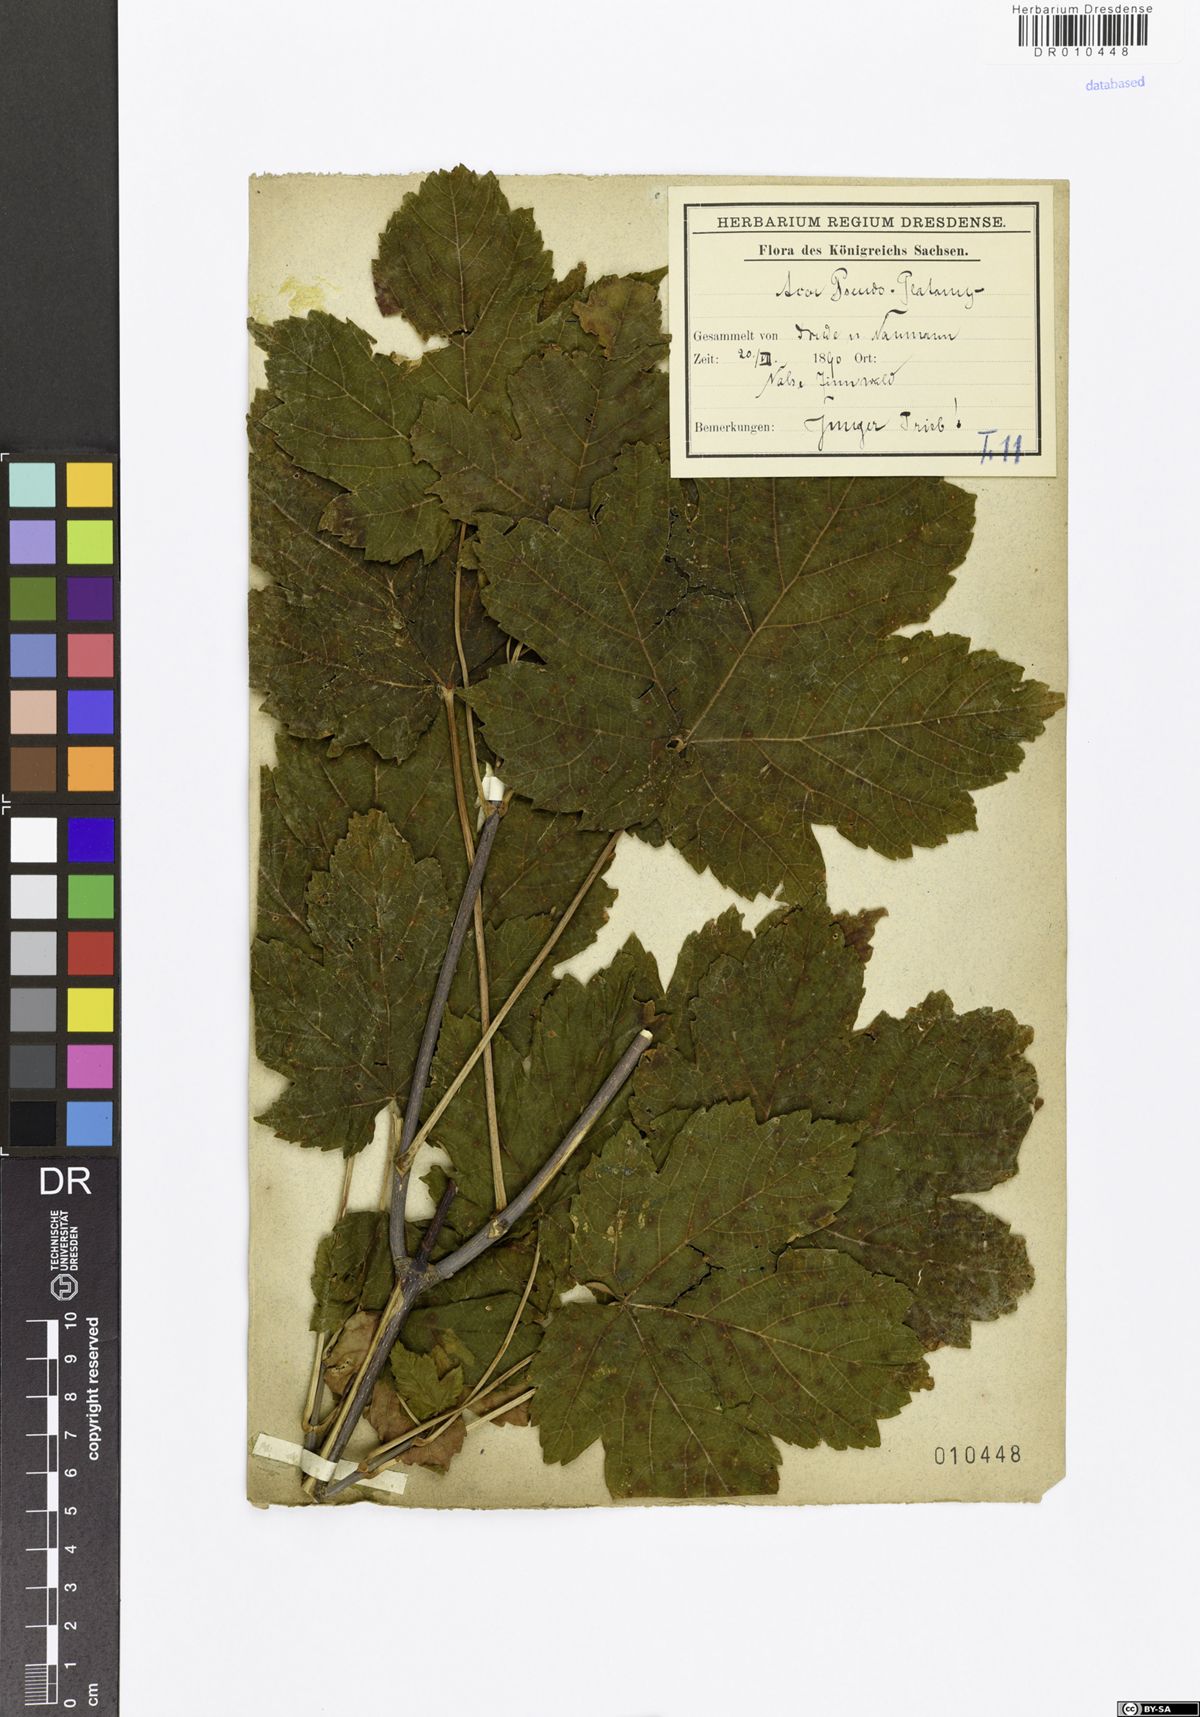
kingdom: Plantae
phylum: Tracheophyta
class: Magnoliopsida
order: Sapindales
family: Sapindaceae
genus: Acer
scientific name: Acer pseudoplatanus
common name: Sycamore
